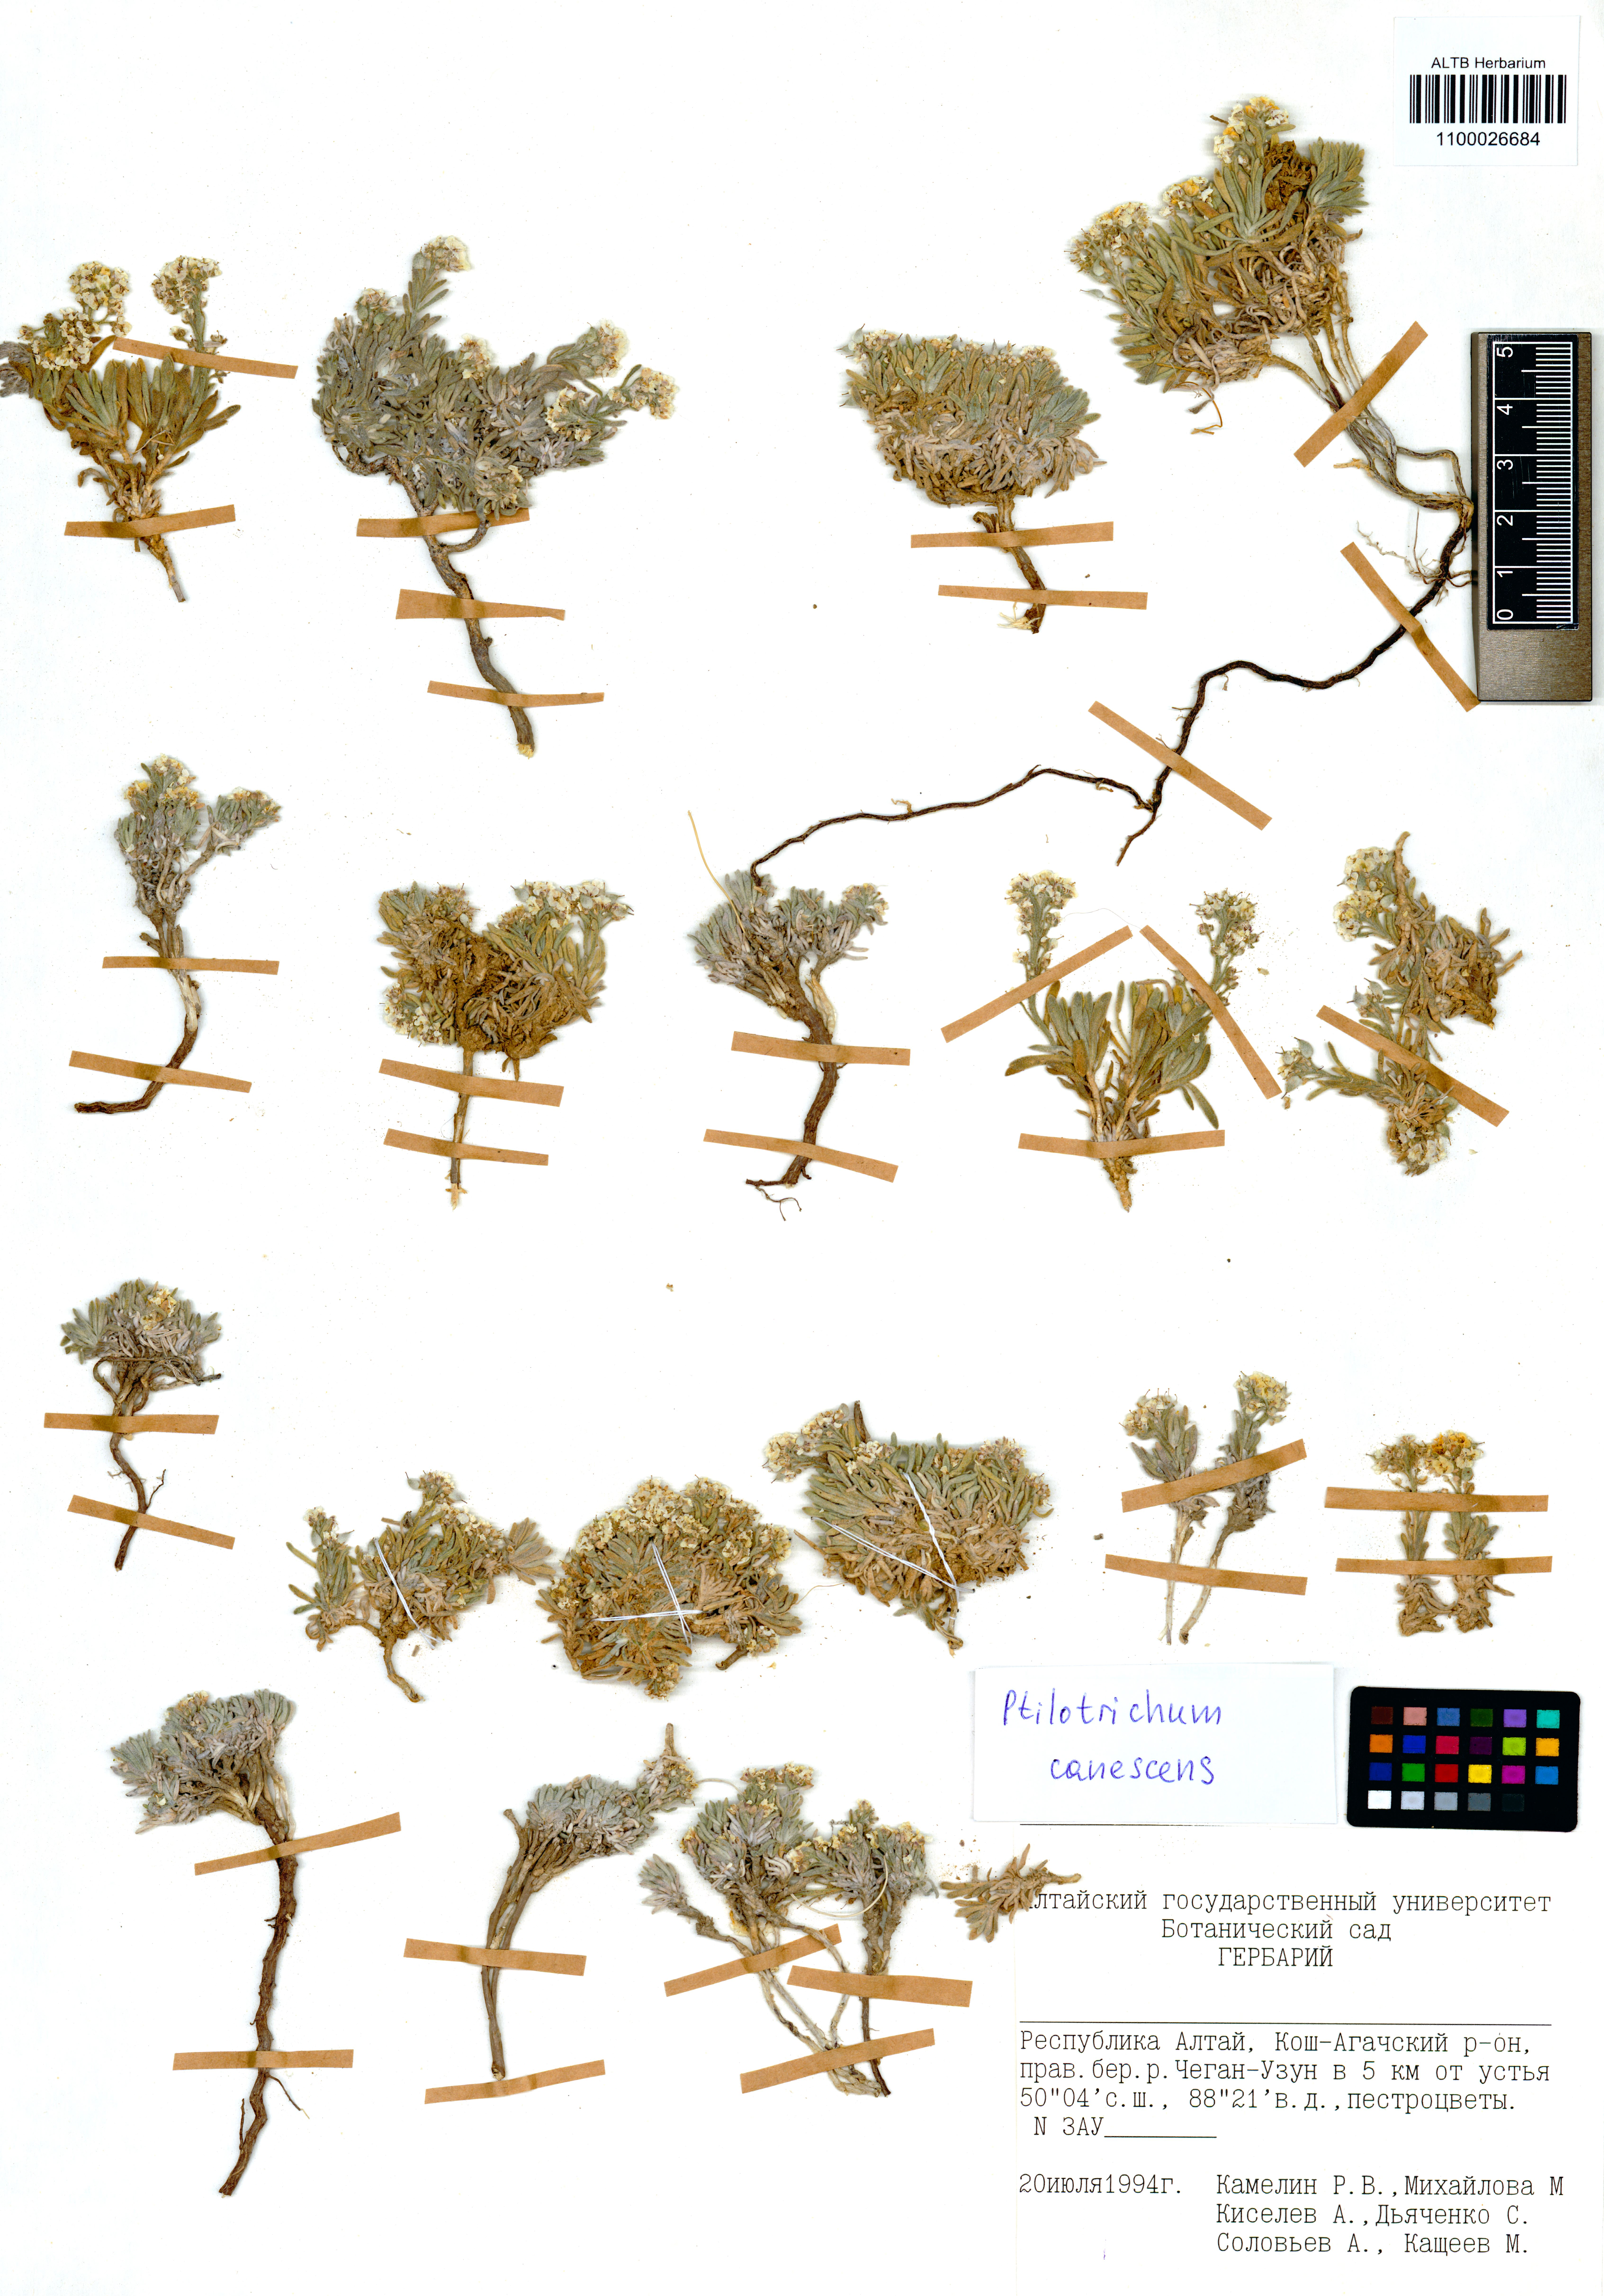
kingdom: Plantae
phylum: Tracheophyta
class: Magnoliopsida
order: Brassicales
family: Brassicaceae
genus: Stevenia
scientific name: Stevenia canescens
